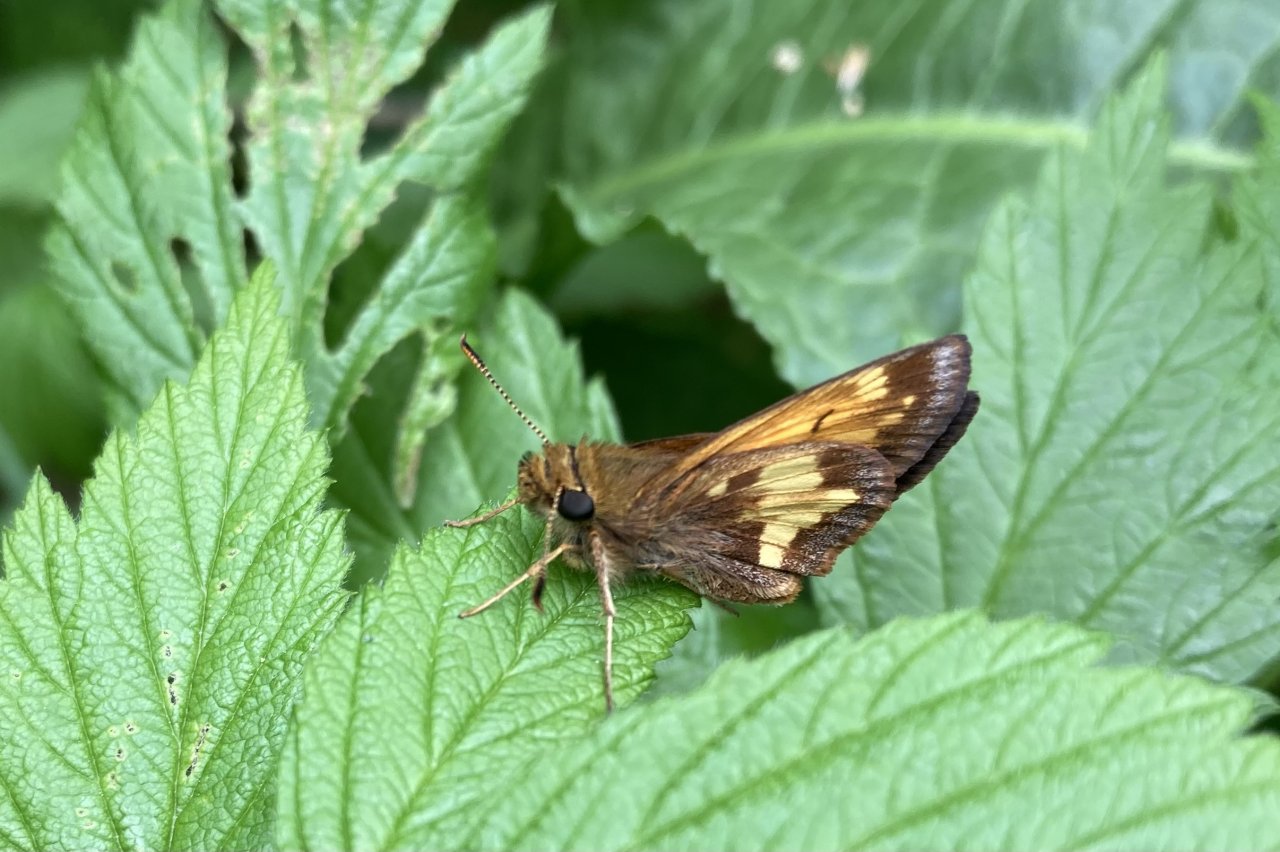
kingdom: Animalia
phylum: Arthropoda
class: Insecta
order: Lepidoptera
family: Hesperiidae
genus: Lon
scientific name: Lon hobomok
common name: Hobomok Skipper
